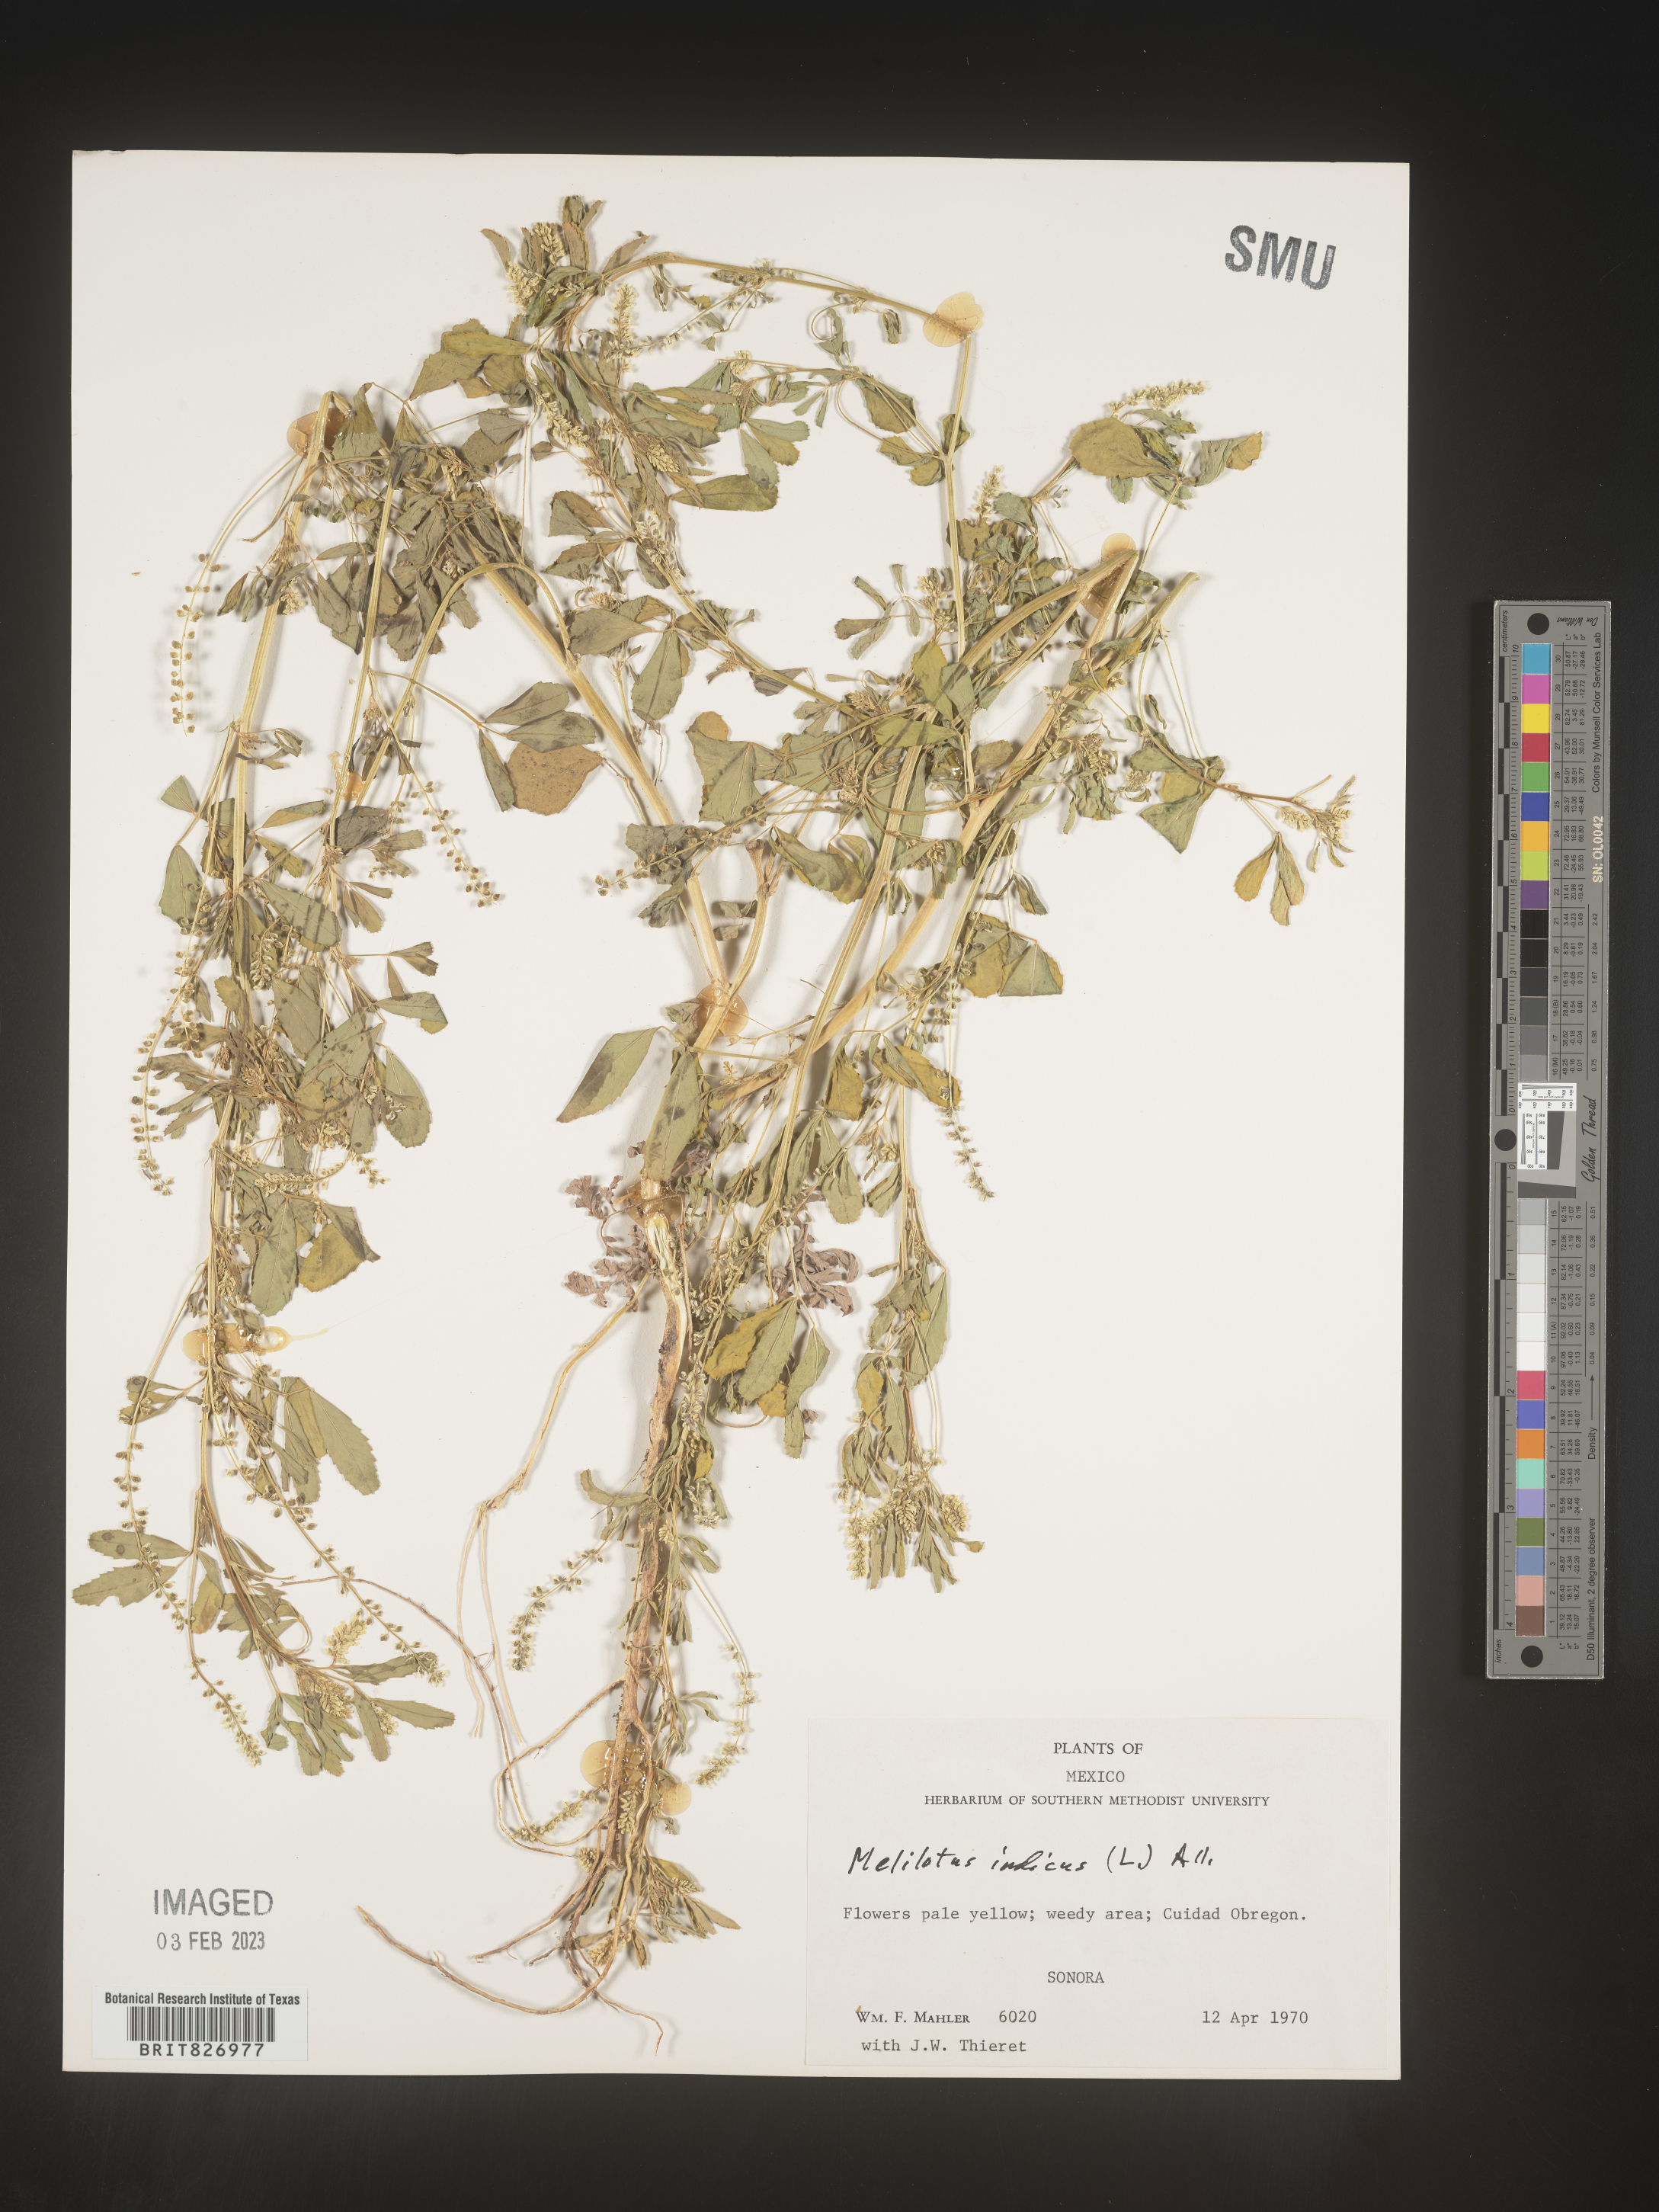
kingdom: Plantae
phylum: Tracheophyta
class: Magnoliopsida
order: Fabales
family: Fabaceae
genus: Melilotus
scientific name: Melilotus
